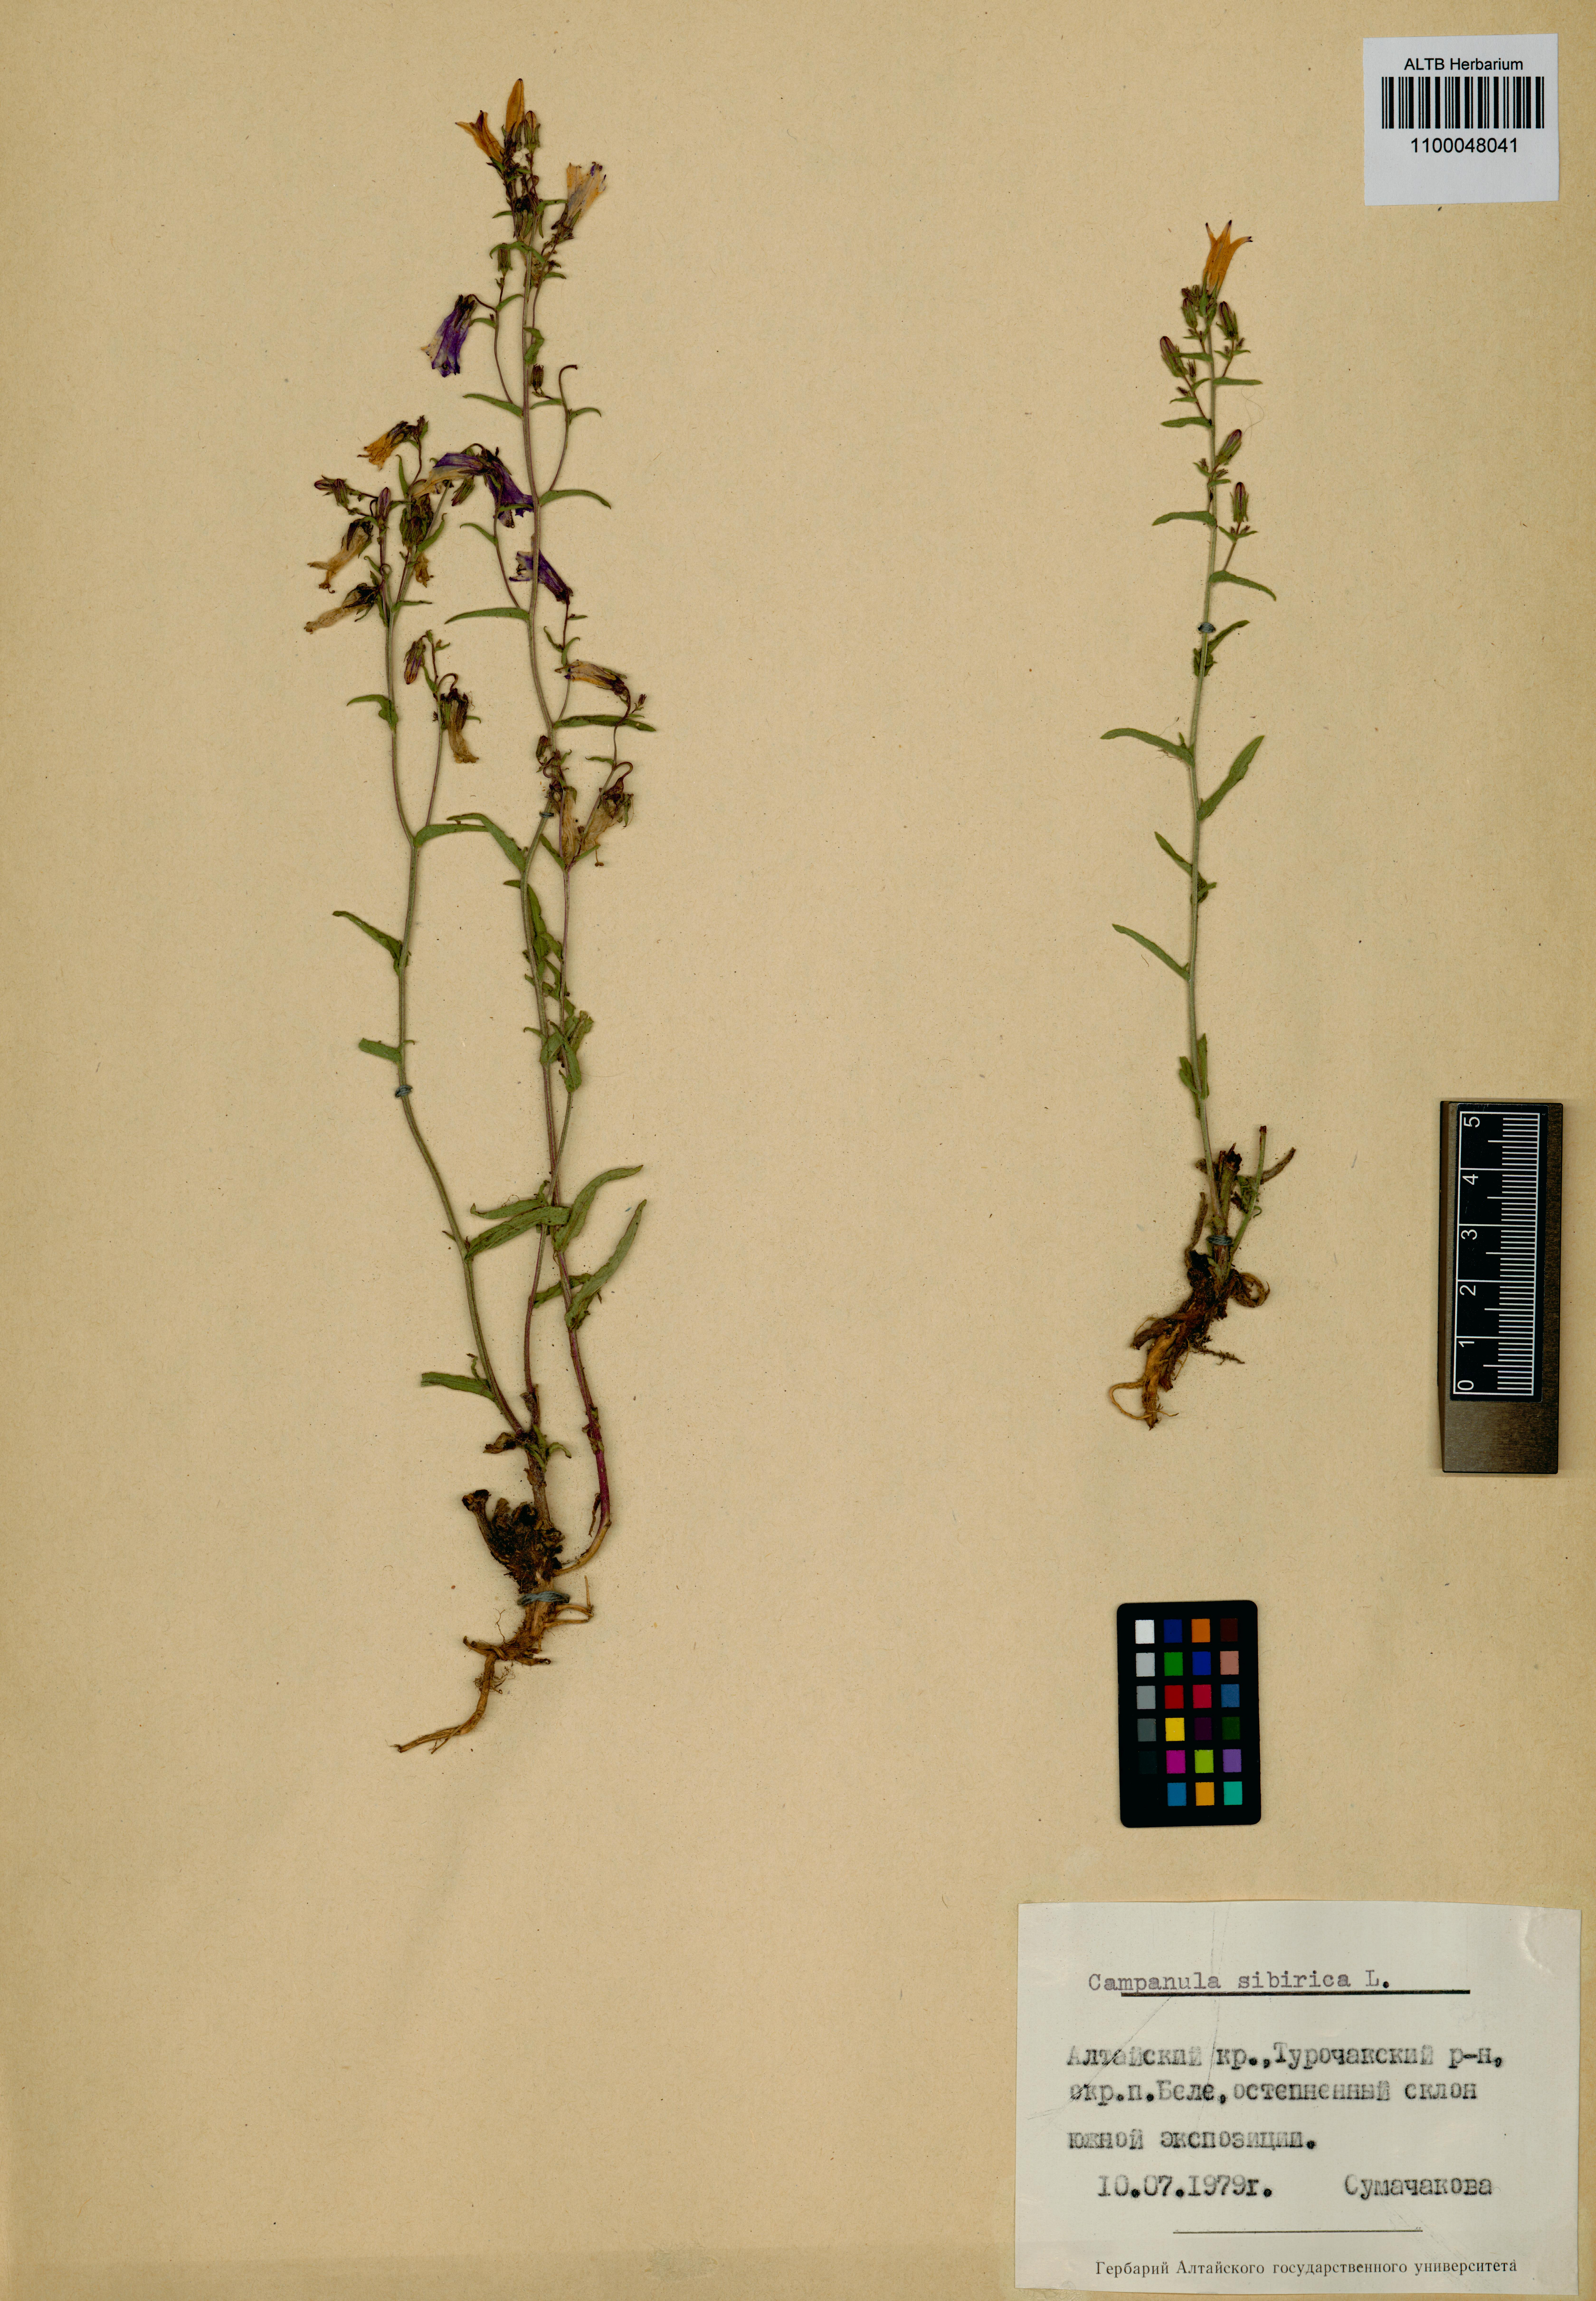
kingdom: Plantae
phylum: Tracheophyta
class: Magnoliopsida
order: Asterales
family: Campanulaceae
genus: Campanula
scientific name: Campanula sibirica
